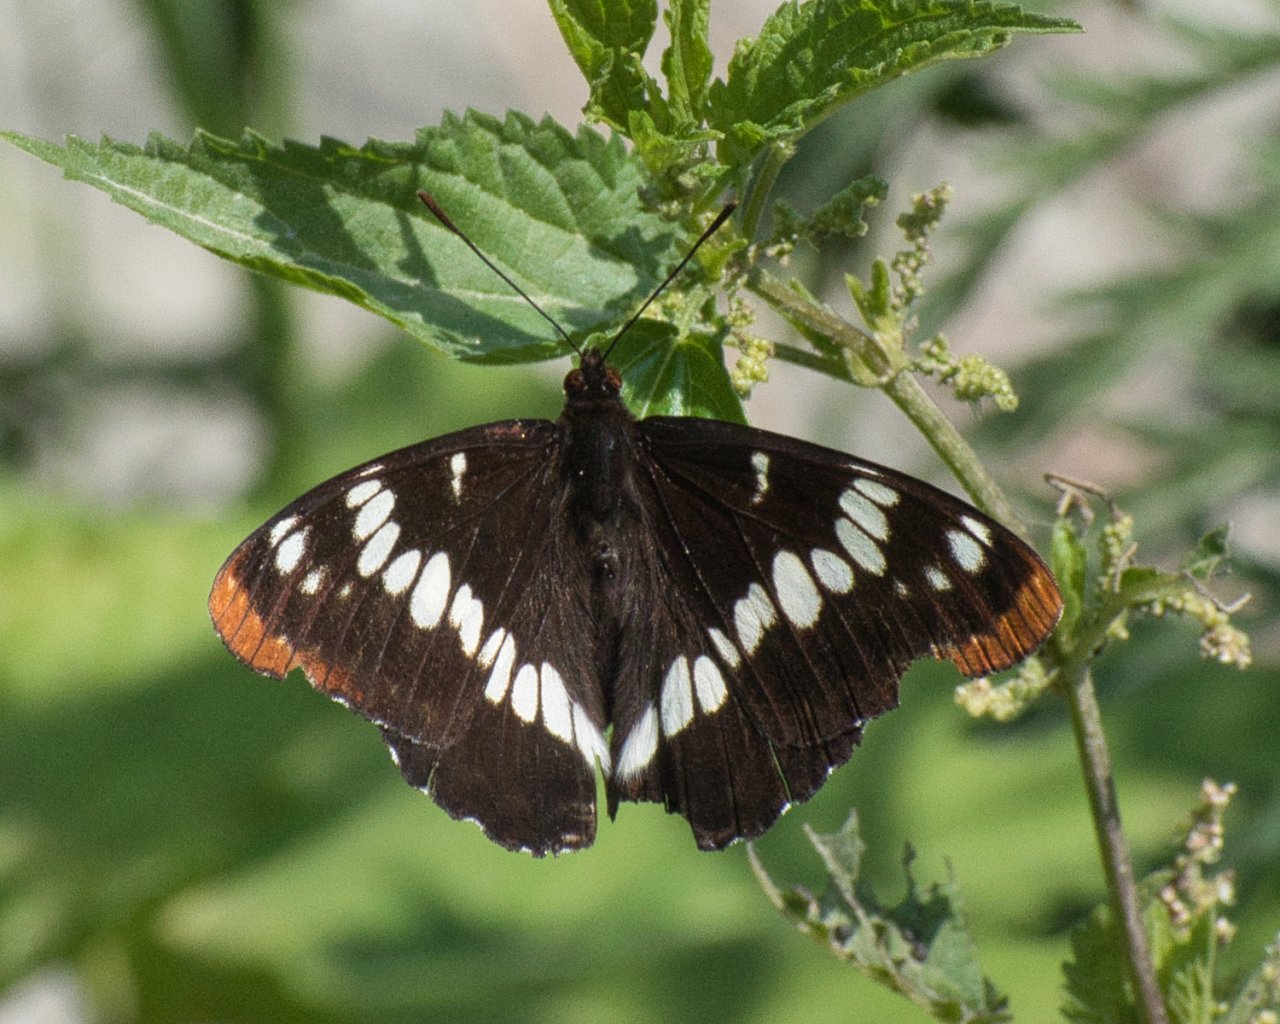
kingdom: Animalia
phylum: Arthropoda
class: Insecta
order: Lepidoptera
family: Nymphalidae
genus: Limenitis
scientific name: Limenitis lorquini
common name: Lorquin's Admiral
